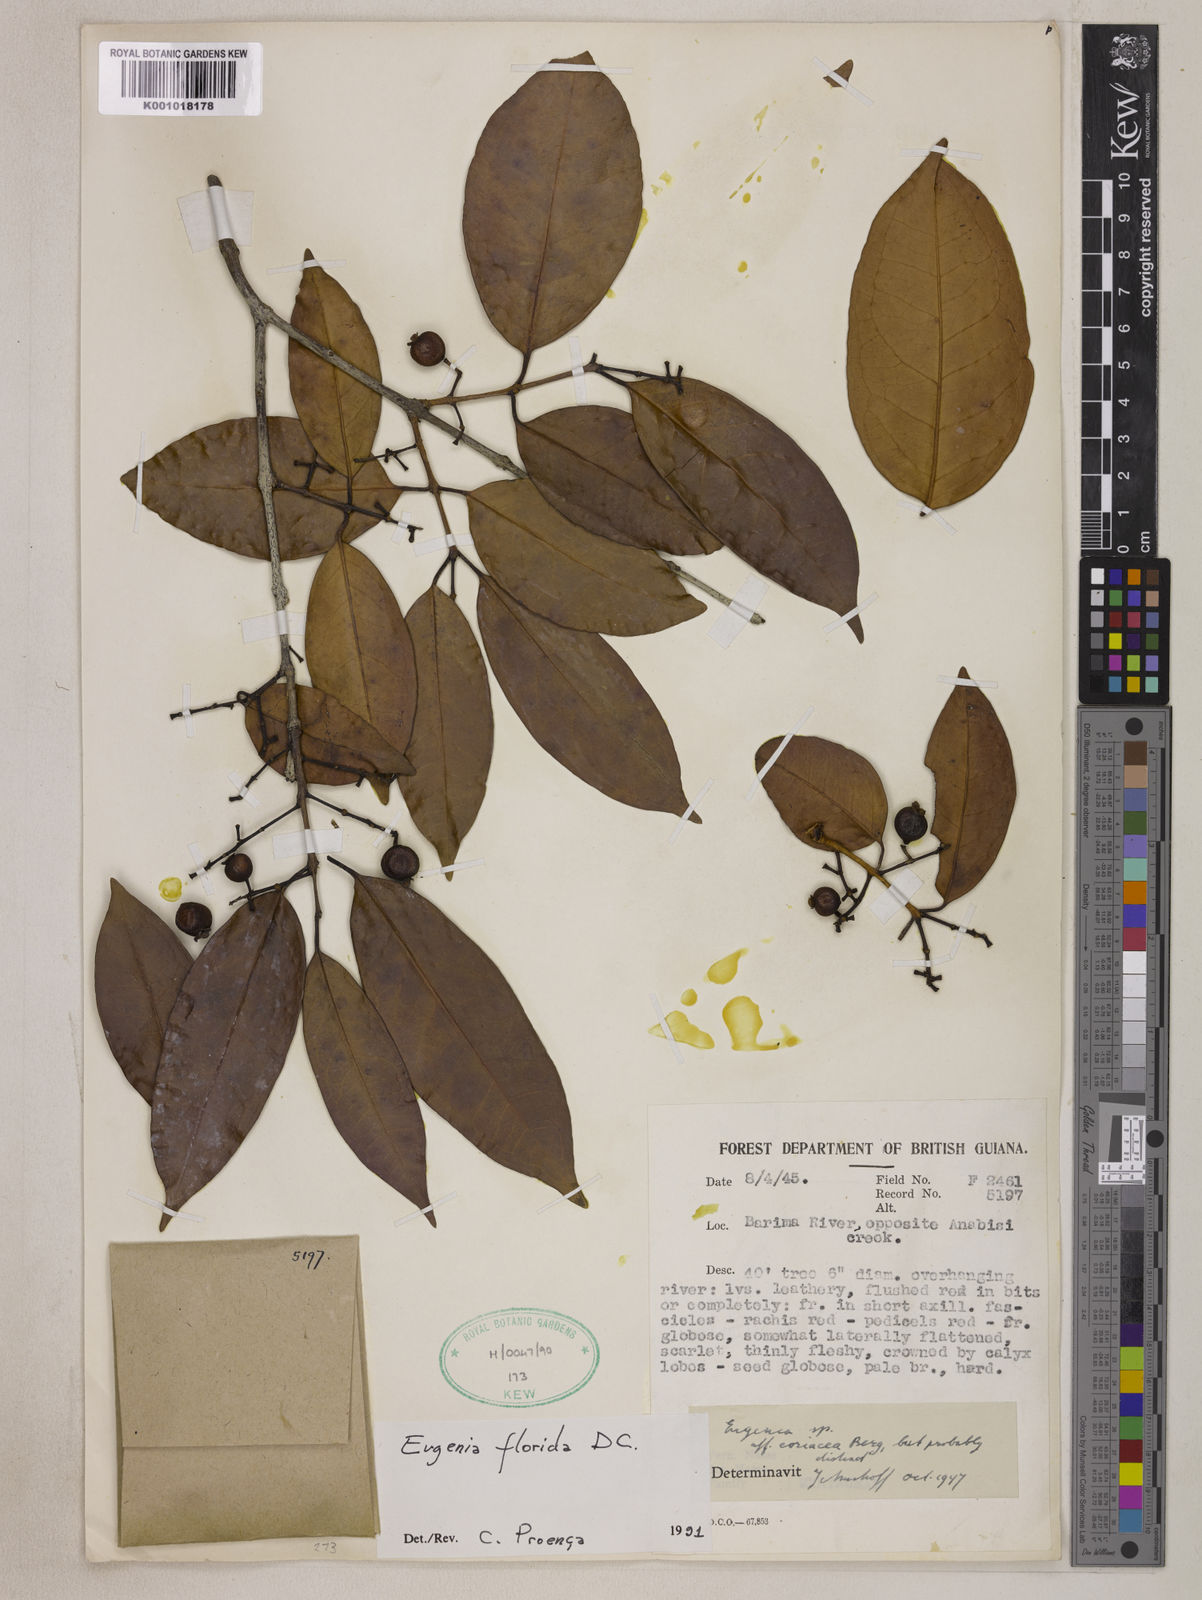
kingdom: Plantae
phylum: Tracheophyta
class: Magnoliopsida
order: Myrtales
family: Myrtaceae
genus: Eugenia
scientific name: Eugenia florida
